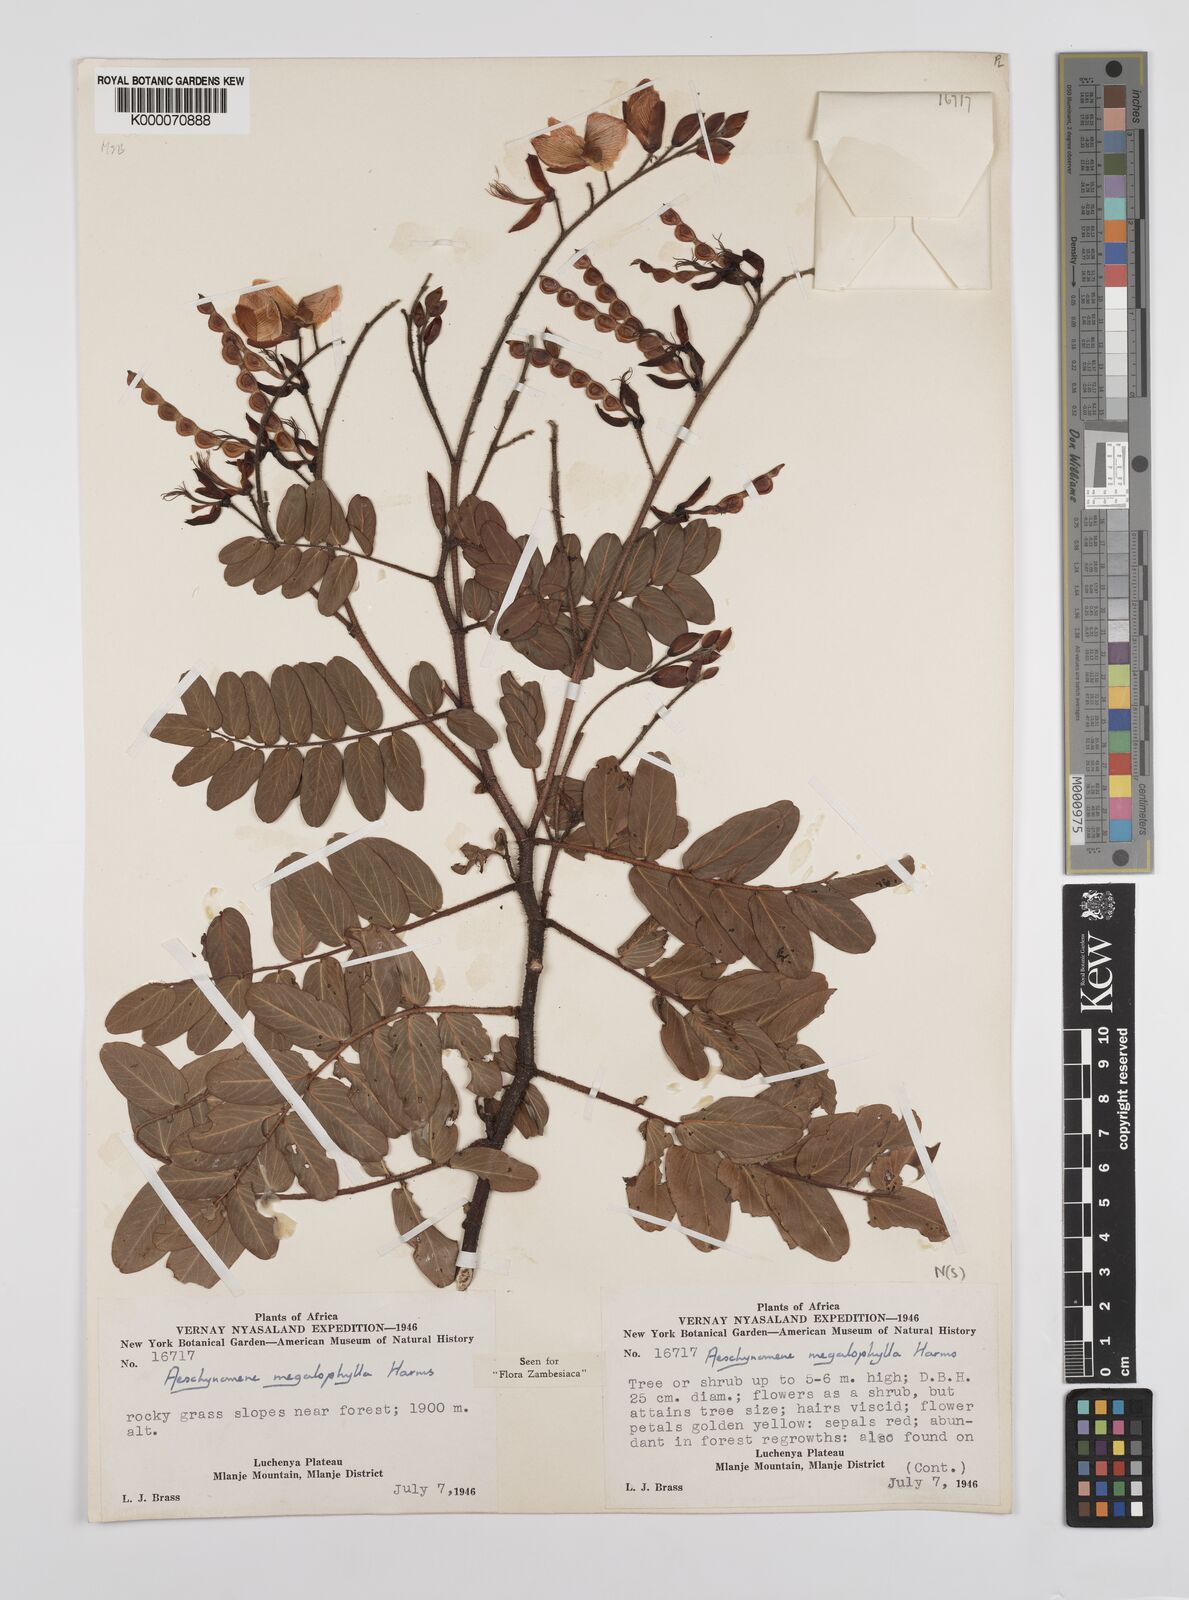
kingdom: Plantae
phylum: Tracheophyta
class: Magnoliopsida
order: Fabales
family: Fabaceae
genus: Aeschynomene
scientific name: Aeschynomene megalophylla
